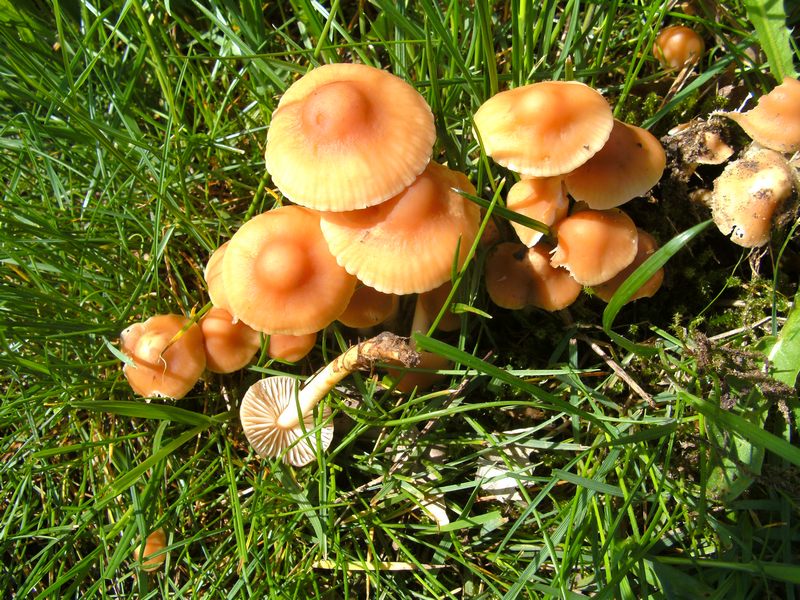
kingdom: Fungi
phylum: Basidiomycota
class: Agaricomycetes
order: Agaricales
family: Marasmiaceae
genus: Marasmius
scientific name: Marasmius oreades
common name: elledans-bruskhat
